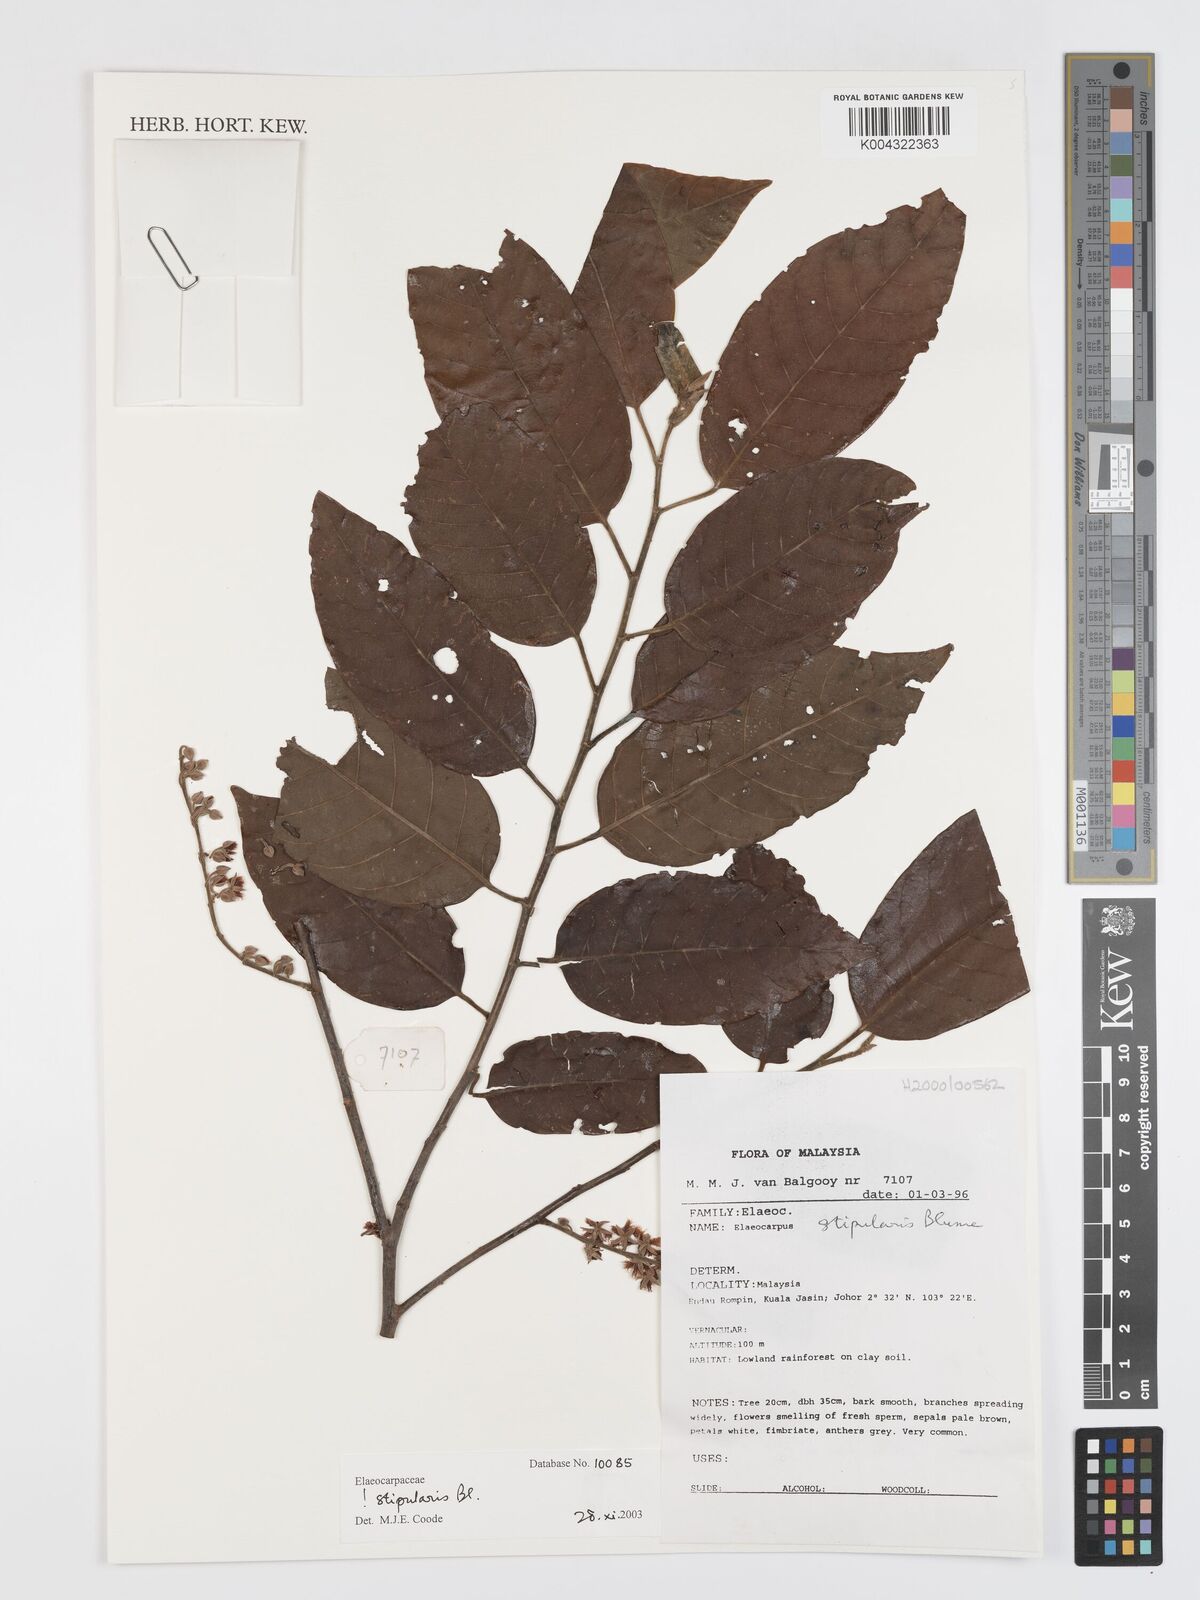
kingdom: Plantae
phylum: Tracheophyta
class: Magnoliopsida
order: Oxalidales
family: Elaeocarpaceae
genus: Elaeocarpus
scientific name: Elaeocarpus stipularis
